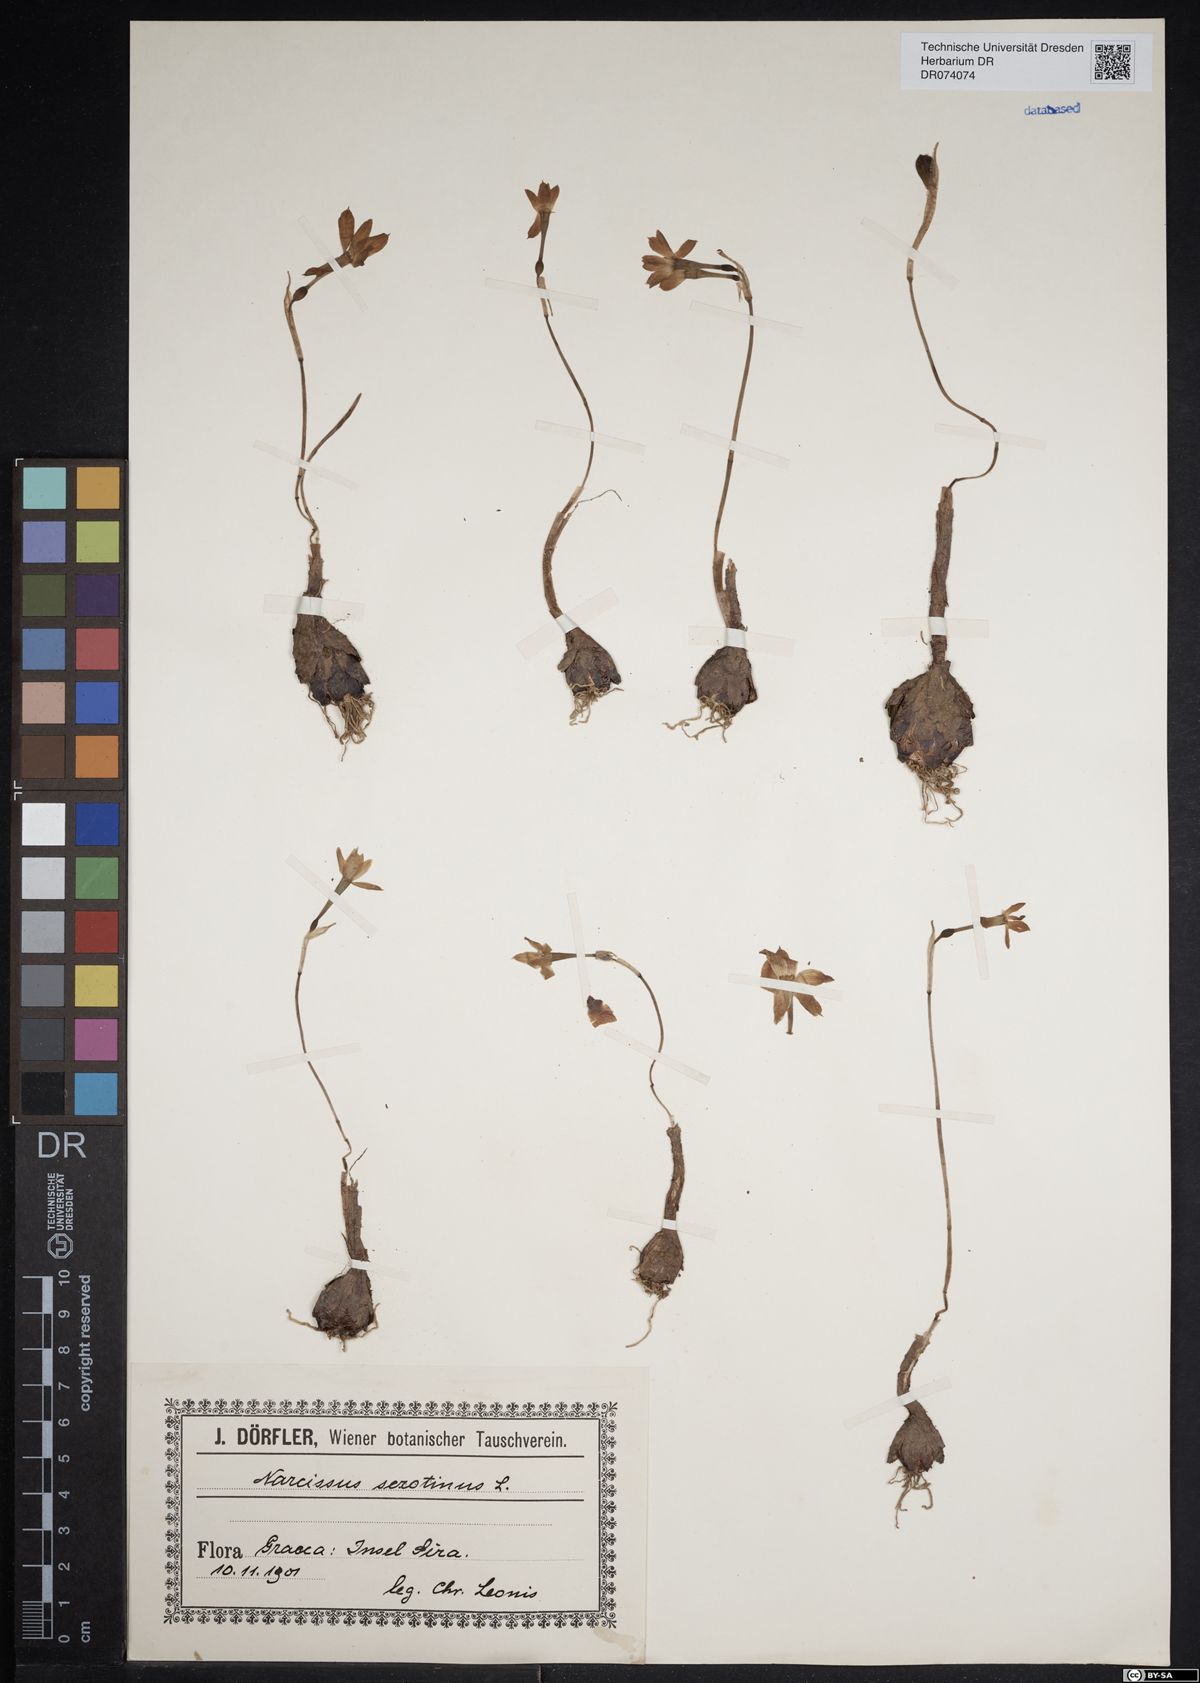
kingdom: Plantae
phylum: Tracheophyta
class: Liliopsida
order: Asparagales
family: Amaryllidaceae
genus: Narcissus
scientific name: Narcissus serotinus
